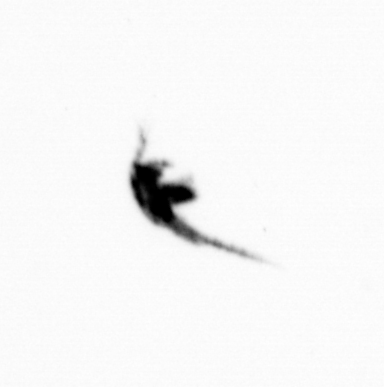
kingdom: Animalia
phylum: Arthropoda
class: Copepoda
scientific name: Copepoda
